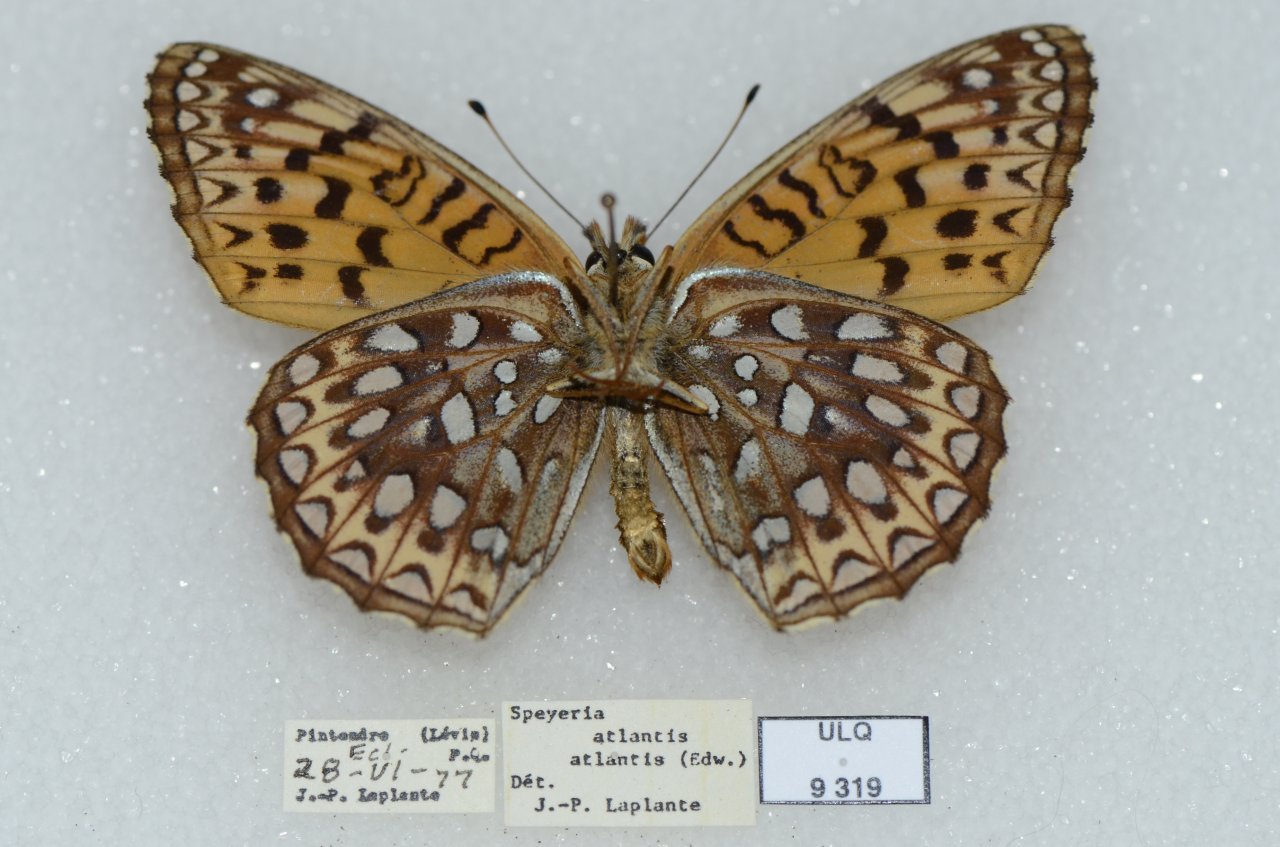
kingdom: Animalia
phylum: Arthropoda
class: Insecta
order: Lepidoptera
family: Nymphalidae
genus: Speyeria
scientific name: Speyeria atlantis
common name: Atlantis Fritillary
